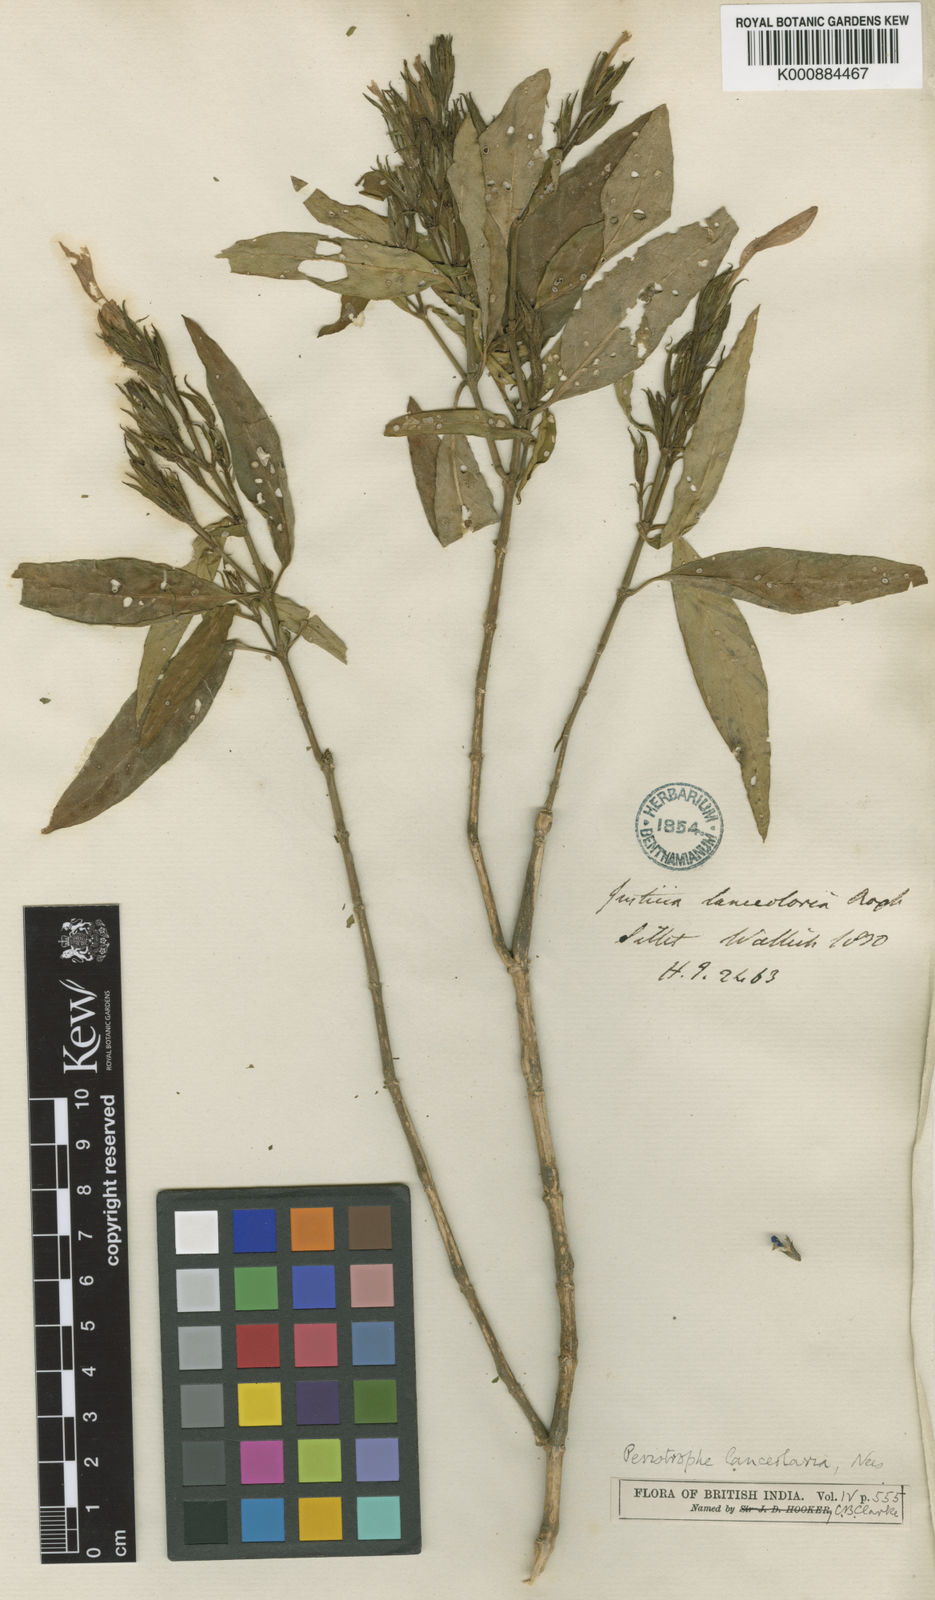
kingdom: Plantae
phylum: Tracheophyta
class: Magnoliopsida
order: Lamiales
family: Acanthaceae
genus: Dicliptera
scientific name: Dicliptera lanceolaria
